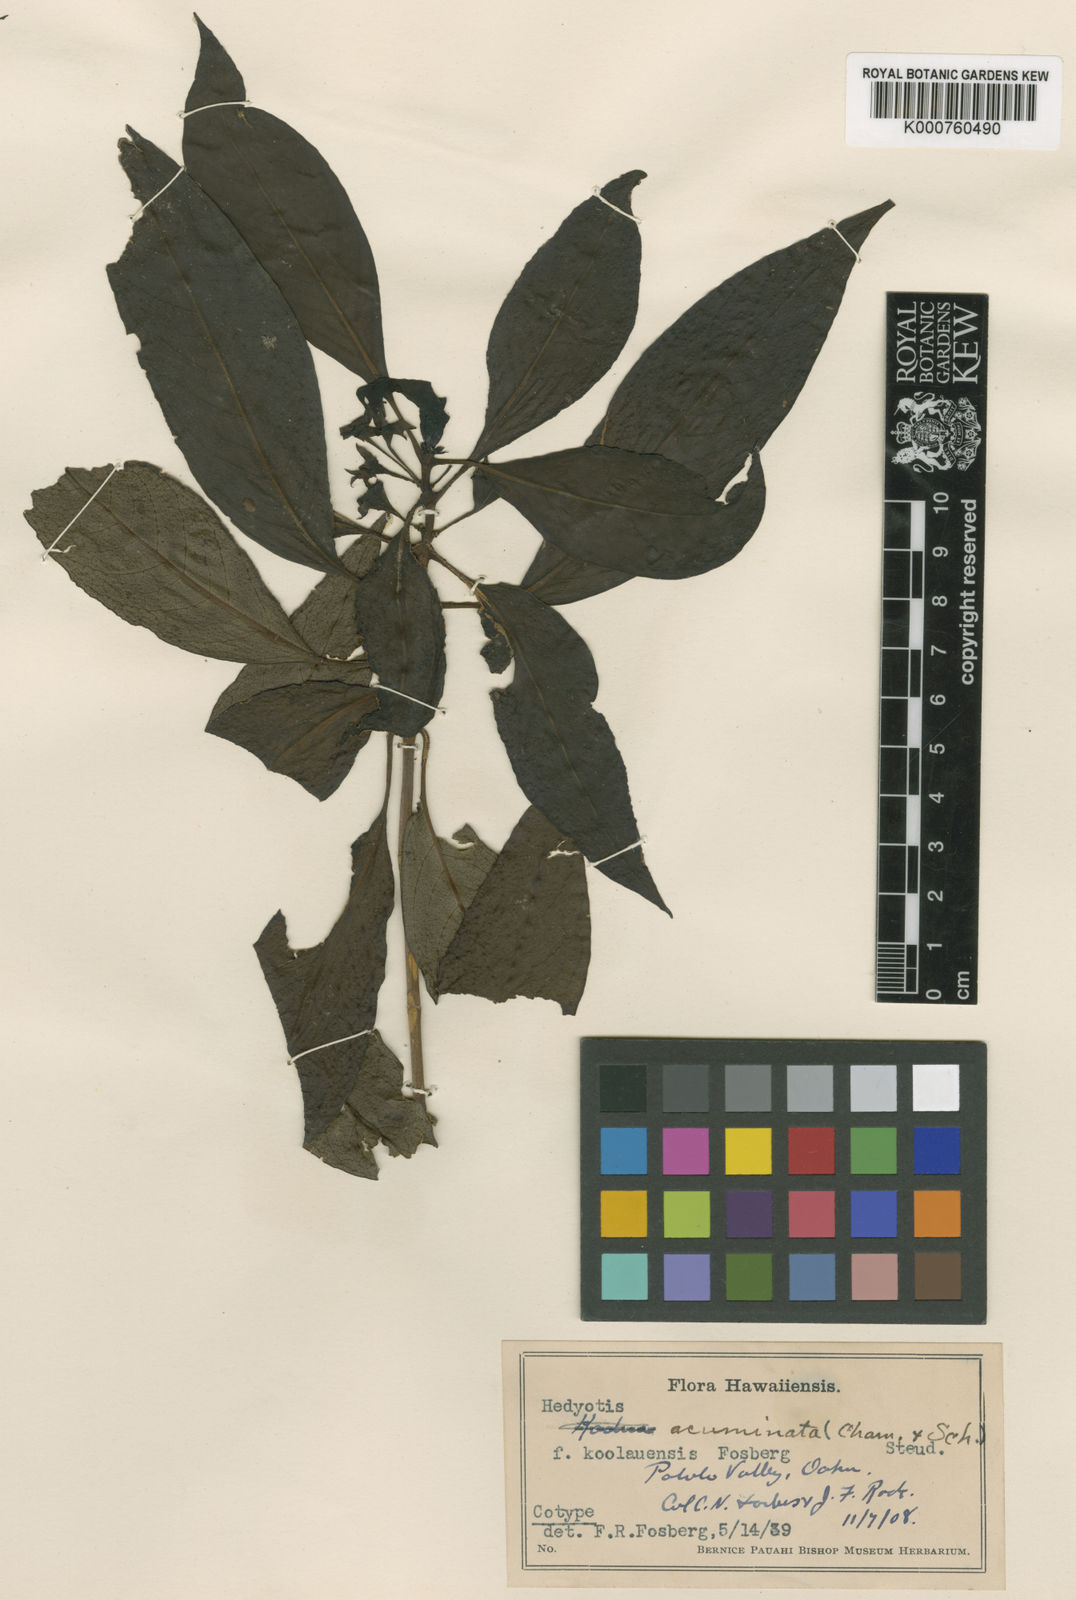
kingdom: Plantae
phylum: Tracheophyta
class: Magnoliopsida
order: Gentianales
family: Rubiaceae
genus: Kadua
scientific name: Kadua acuminata
